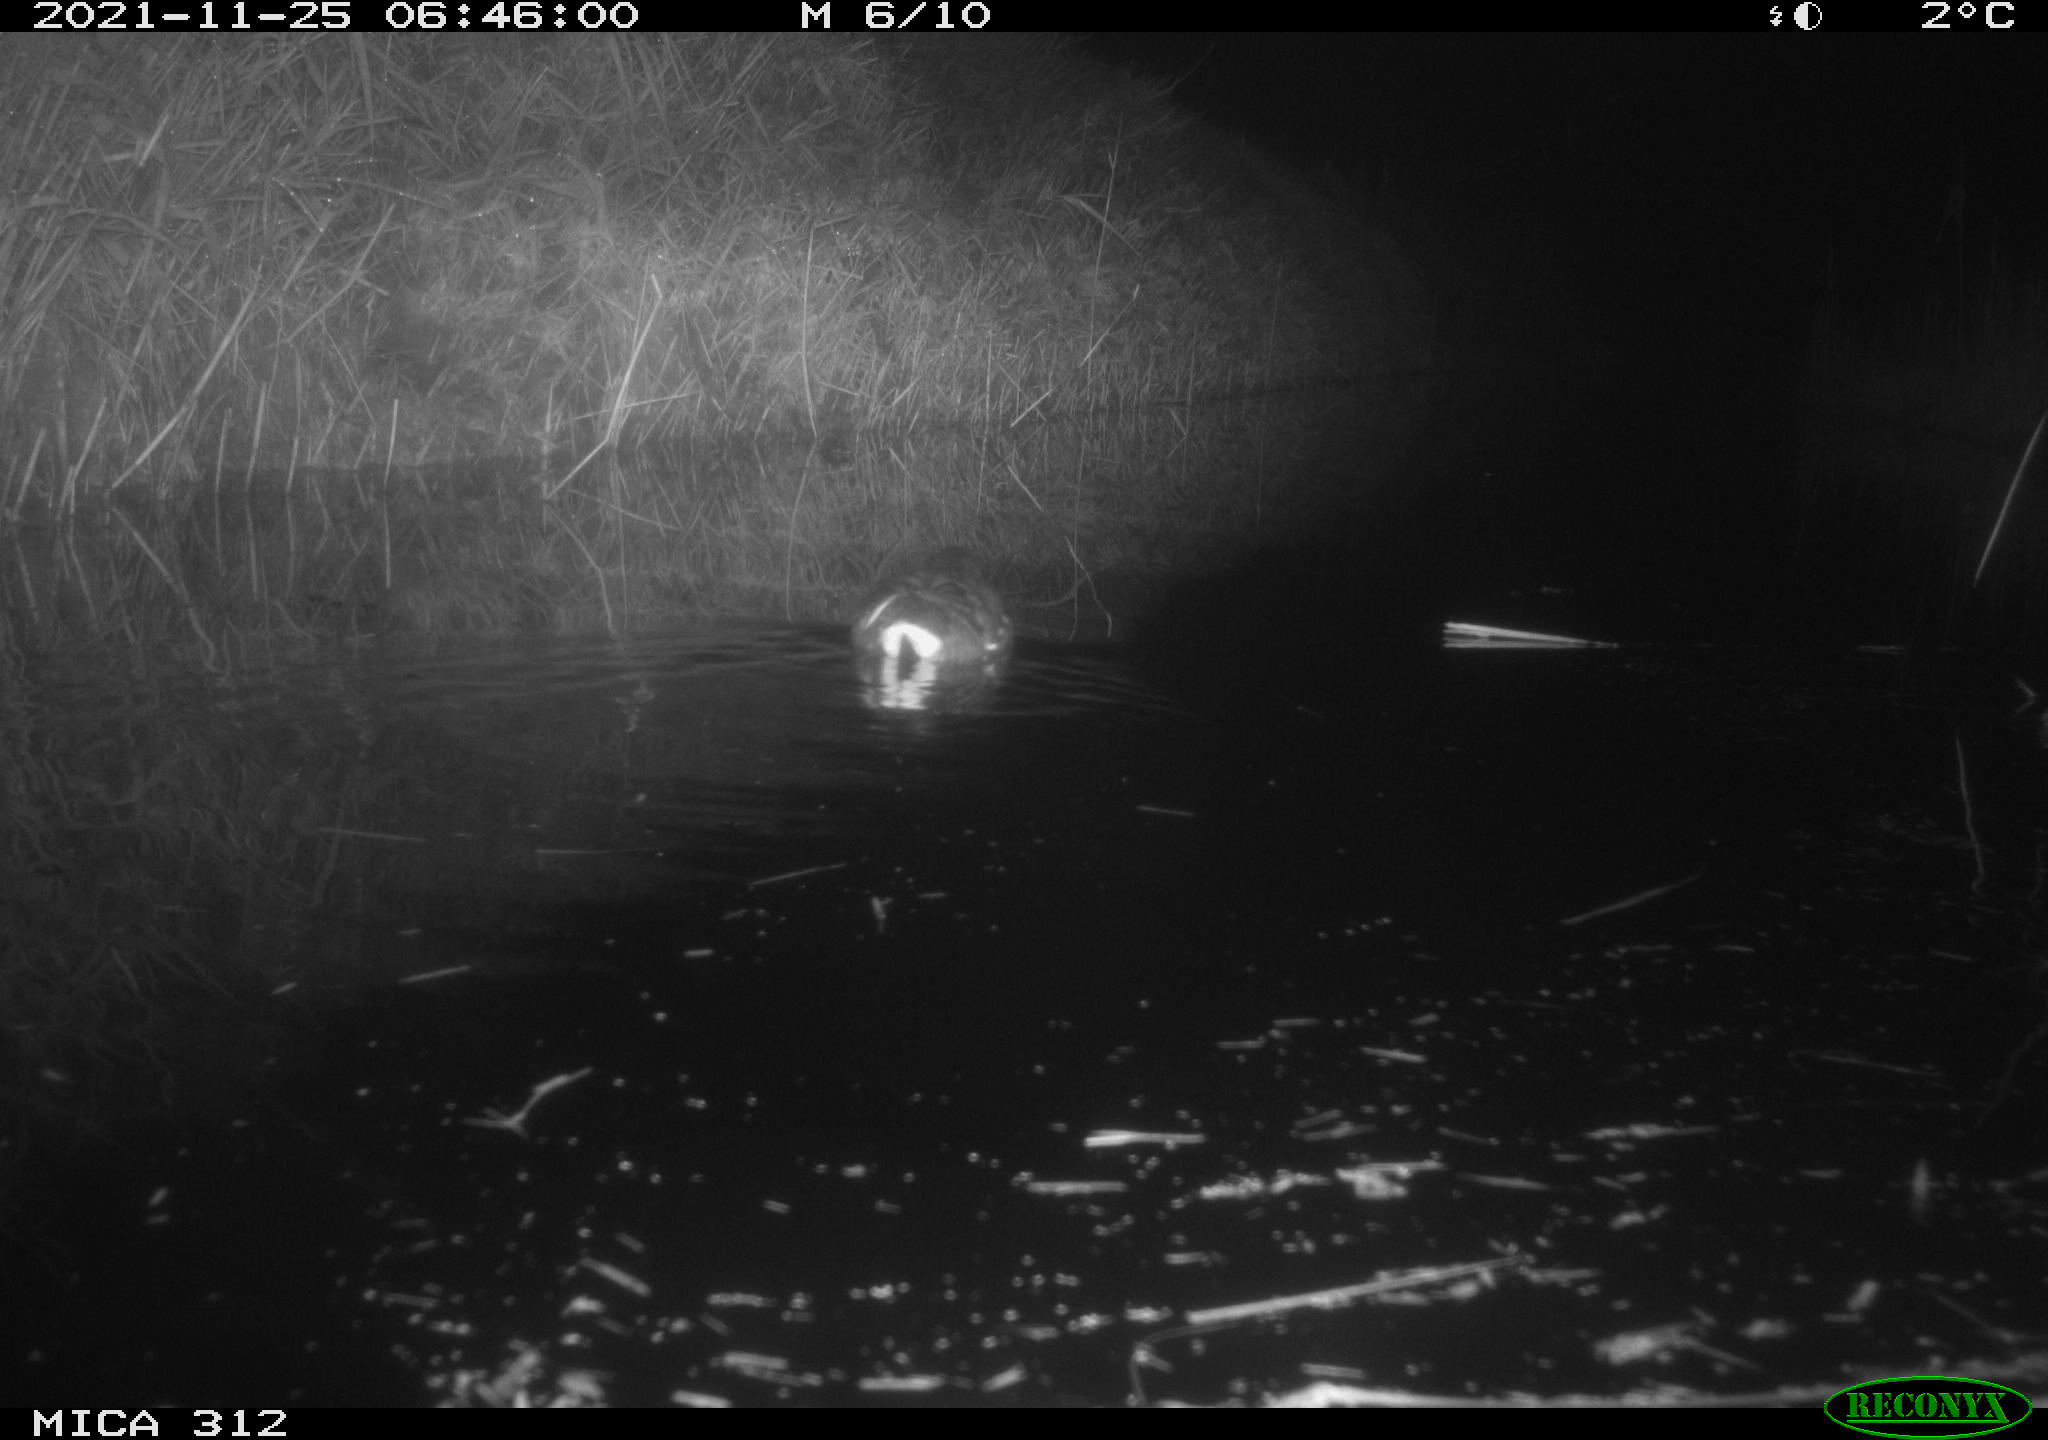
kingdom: Animalia
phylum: Chordata
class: Aves
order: Anseriformes
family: Anatidae
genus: Anas
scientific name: Anas
